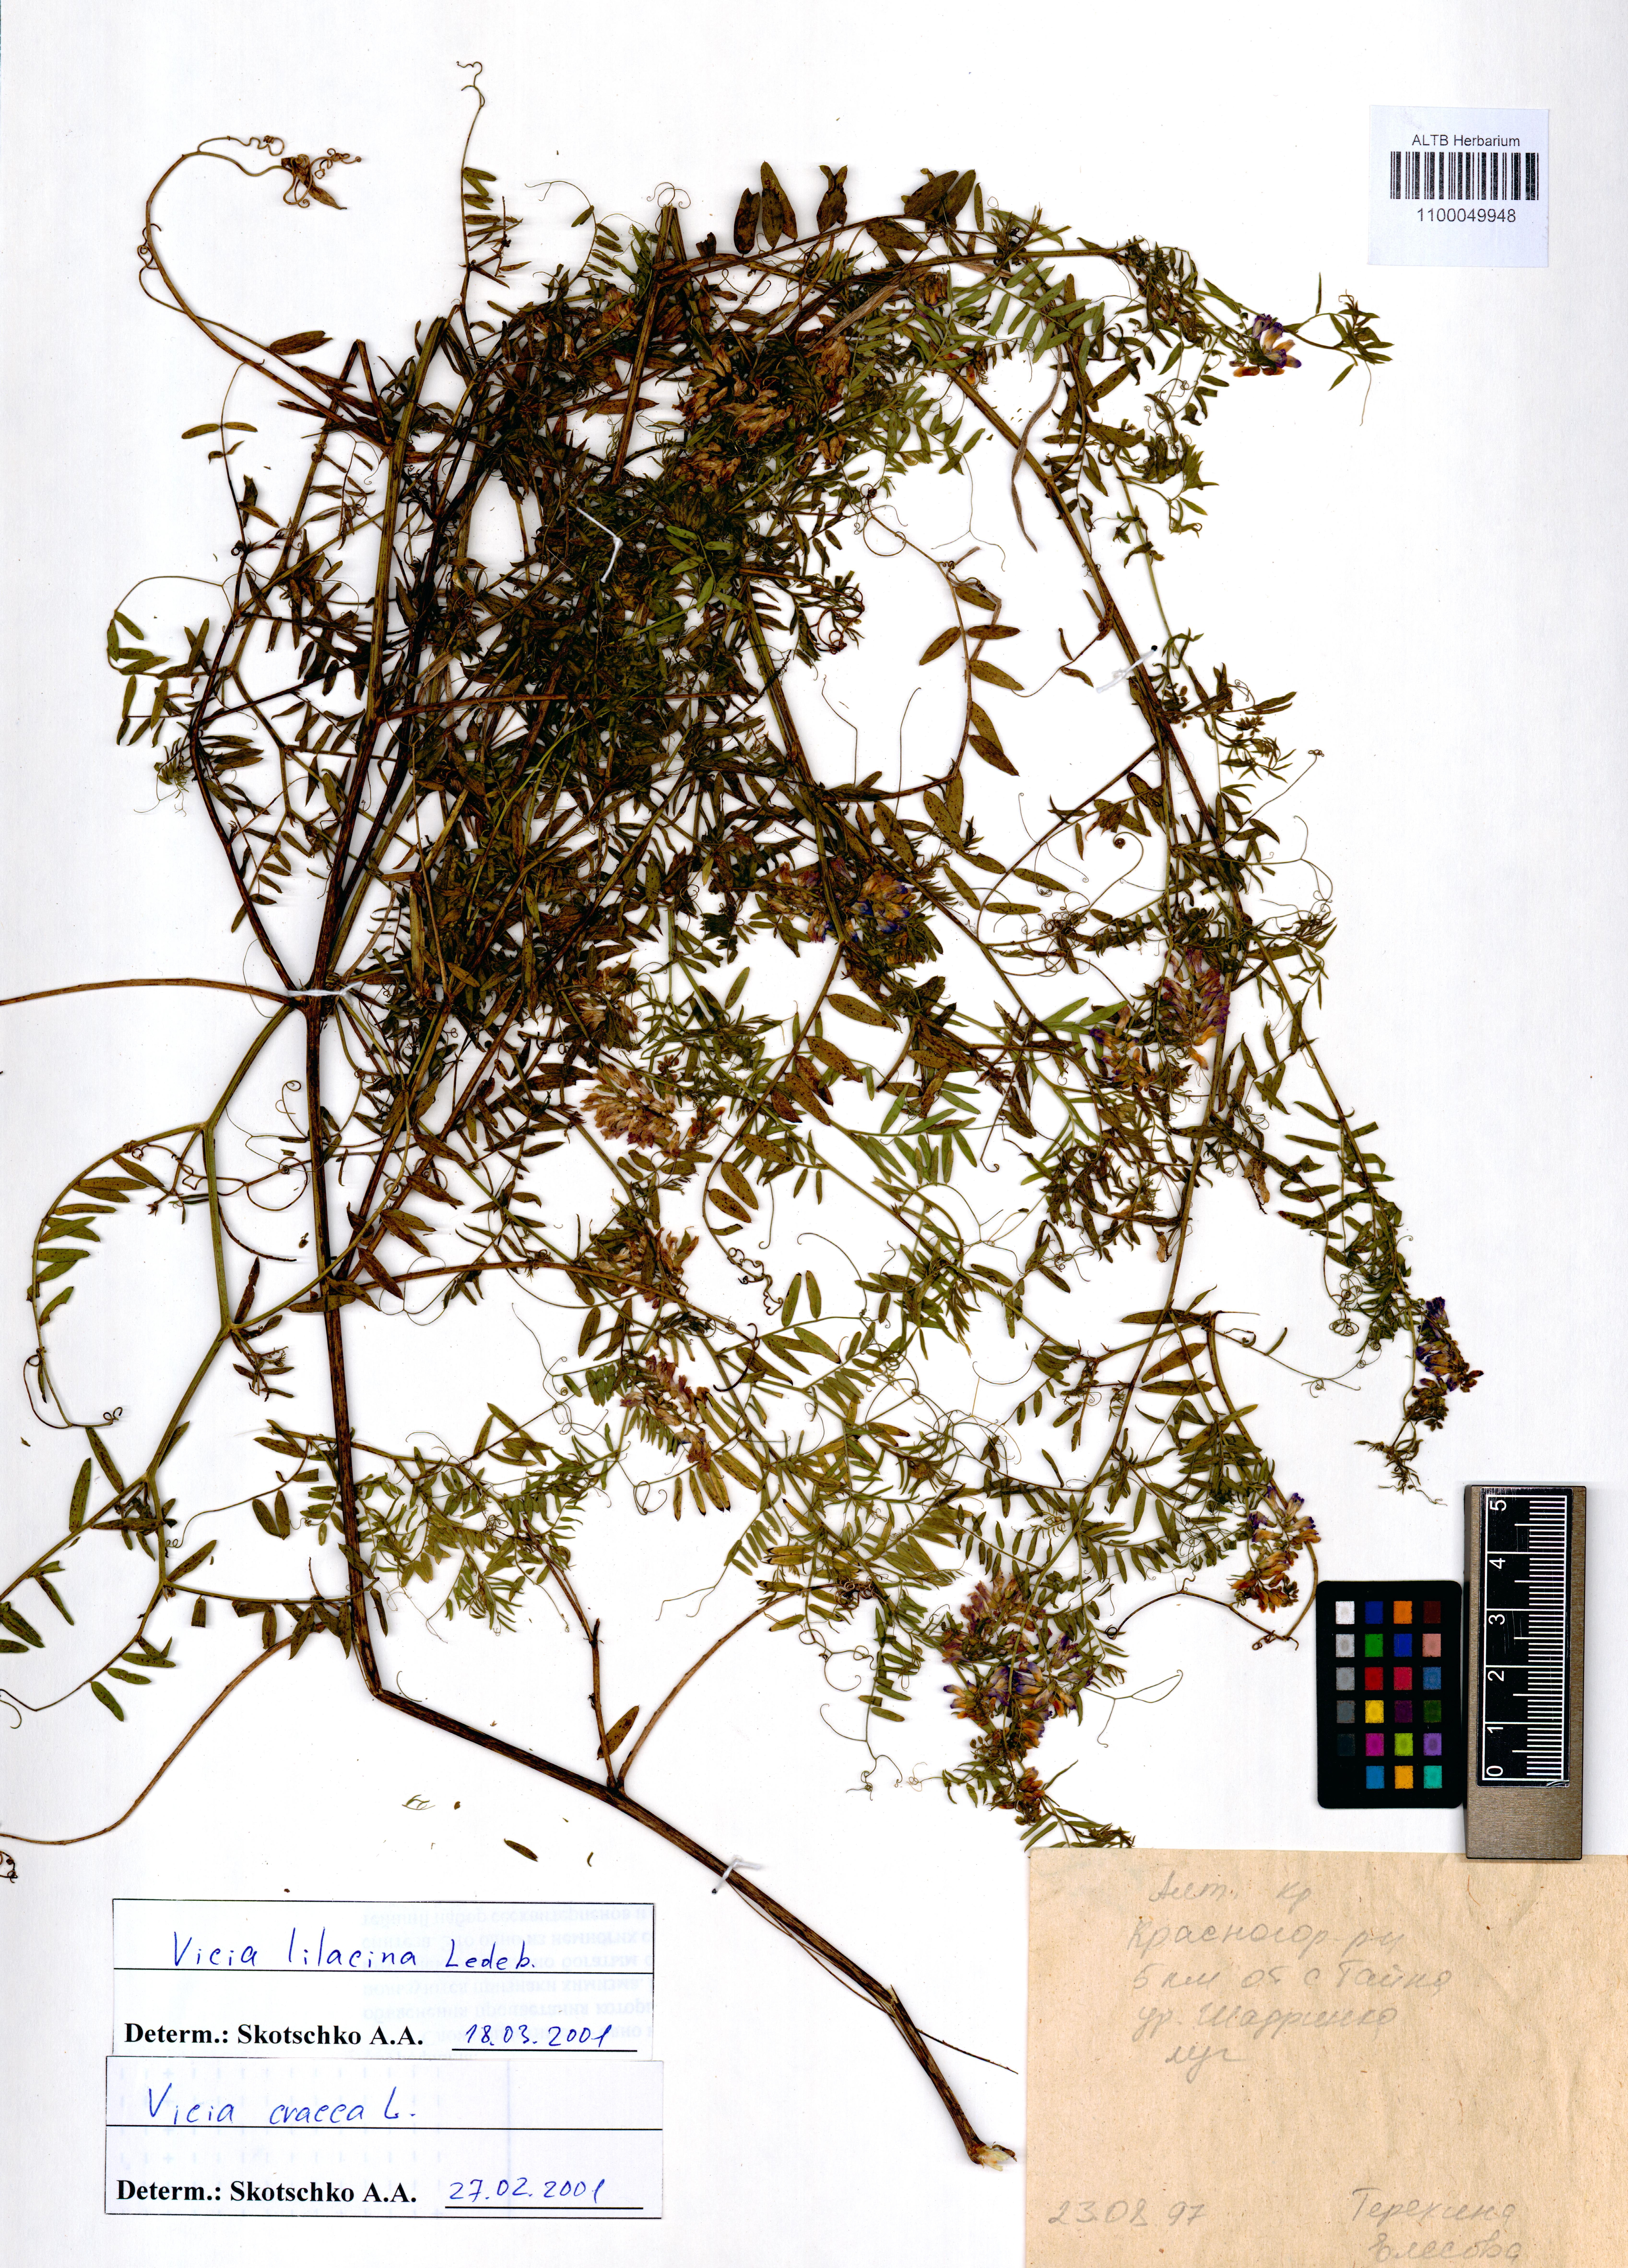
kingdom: Plantae
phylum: Tracheophyta
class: Magnoliopsida
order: Fabales
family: Fabaceae
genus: Vicia
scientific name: Vicia lilacina
